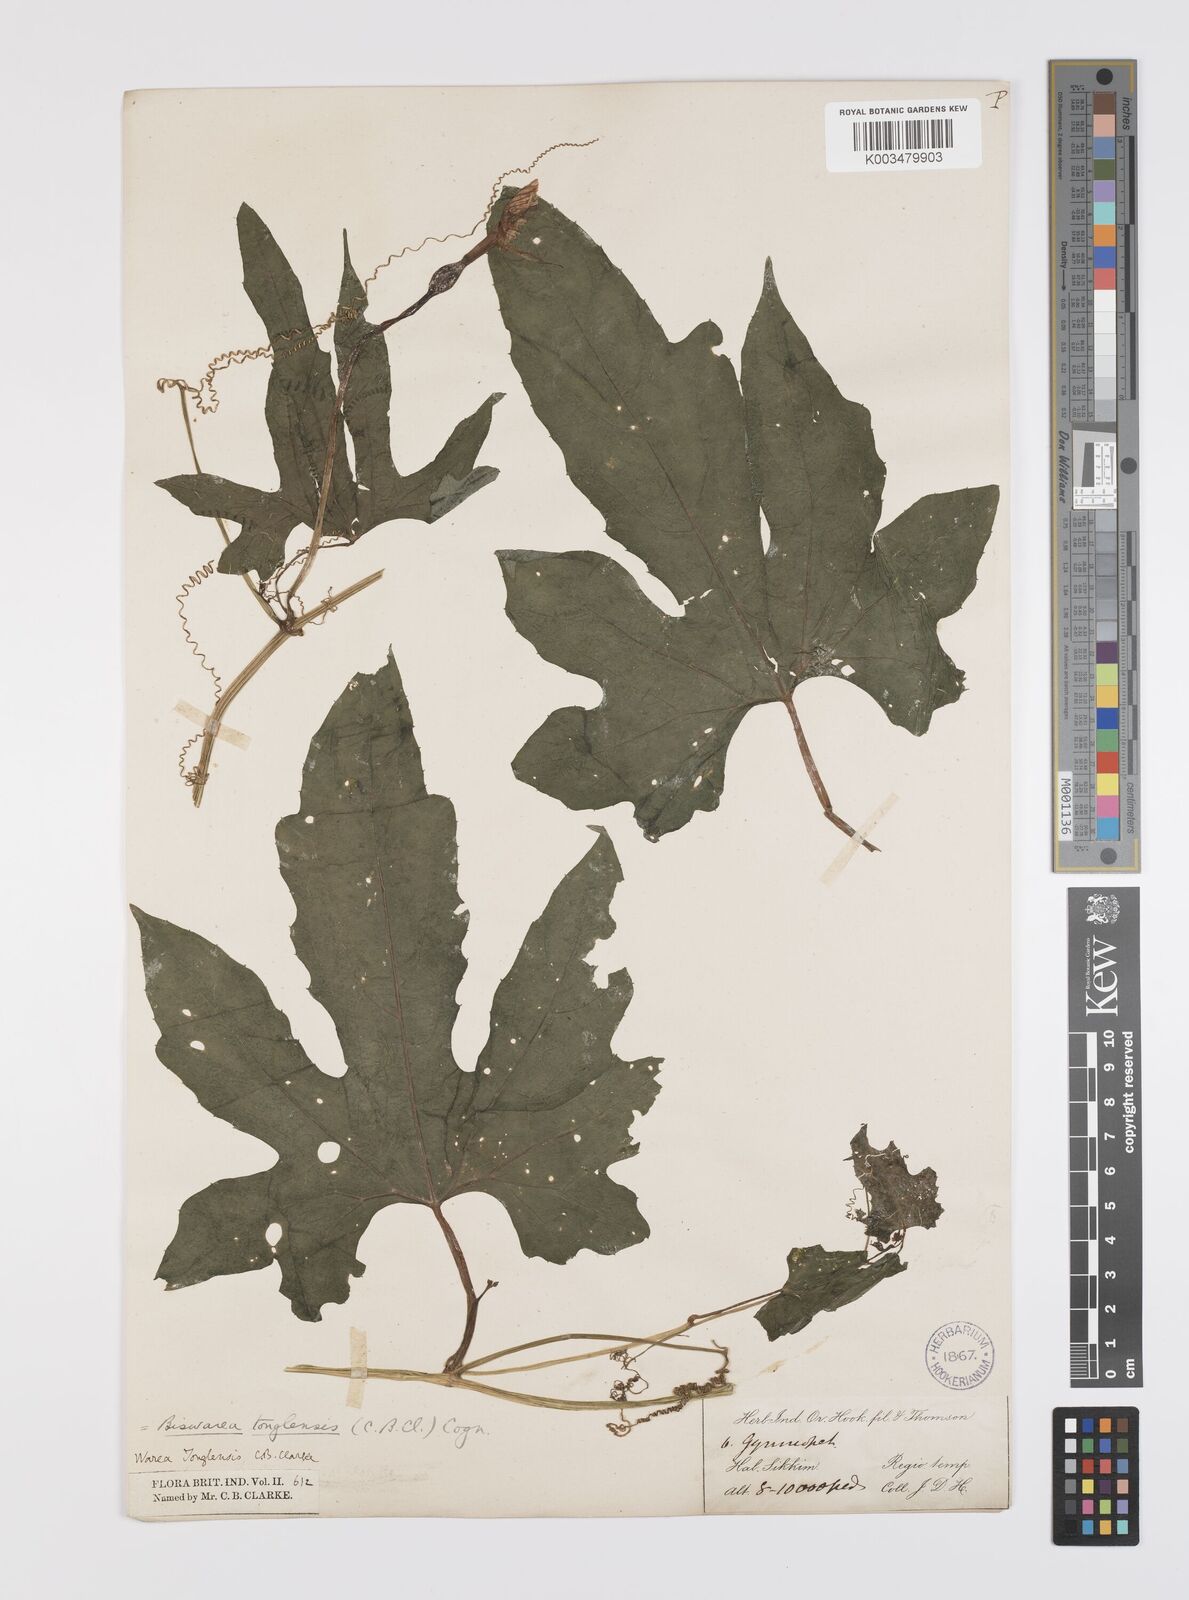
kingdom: Plantae
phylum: Tracheophyta
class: Magnoliopsida
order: Cucurbitales
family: Cucurbitaceae
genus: Benincasa
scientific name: Benincasa
